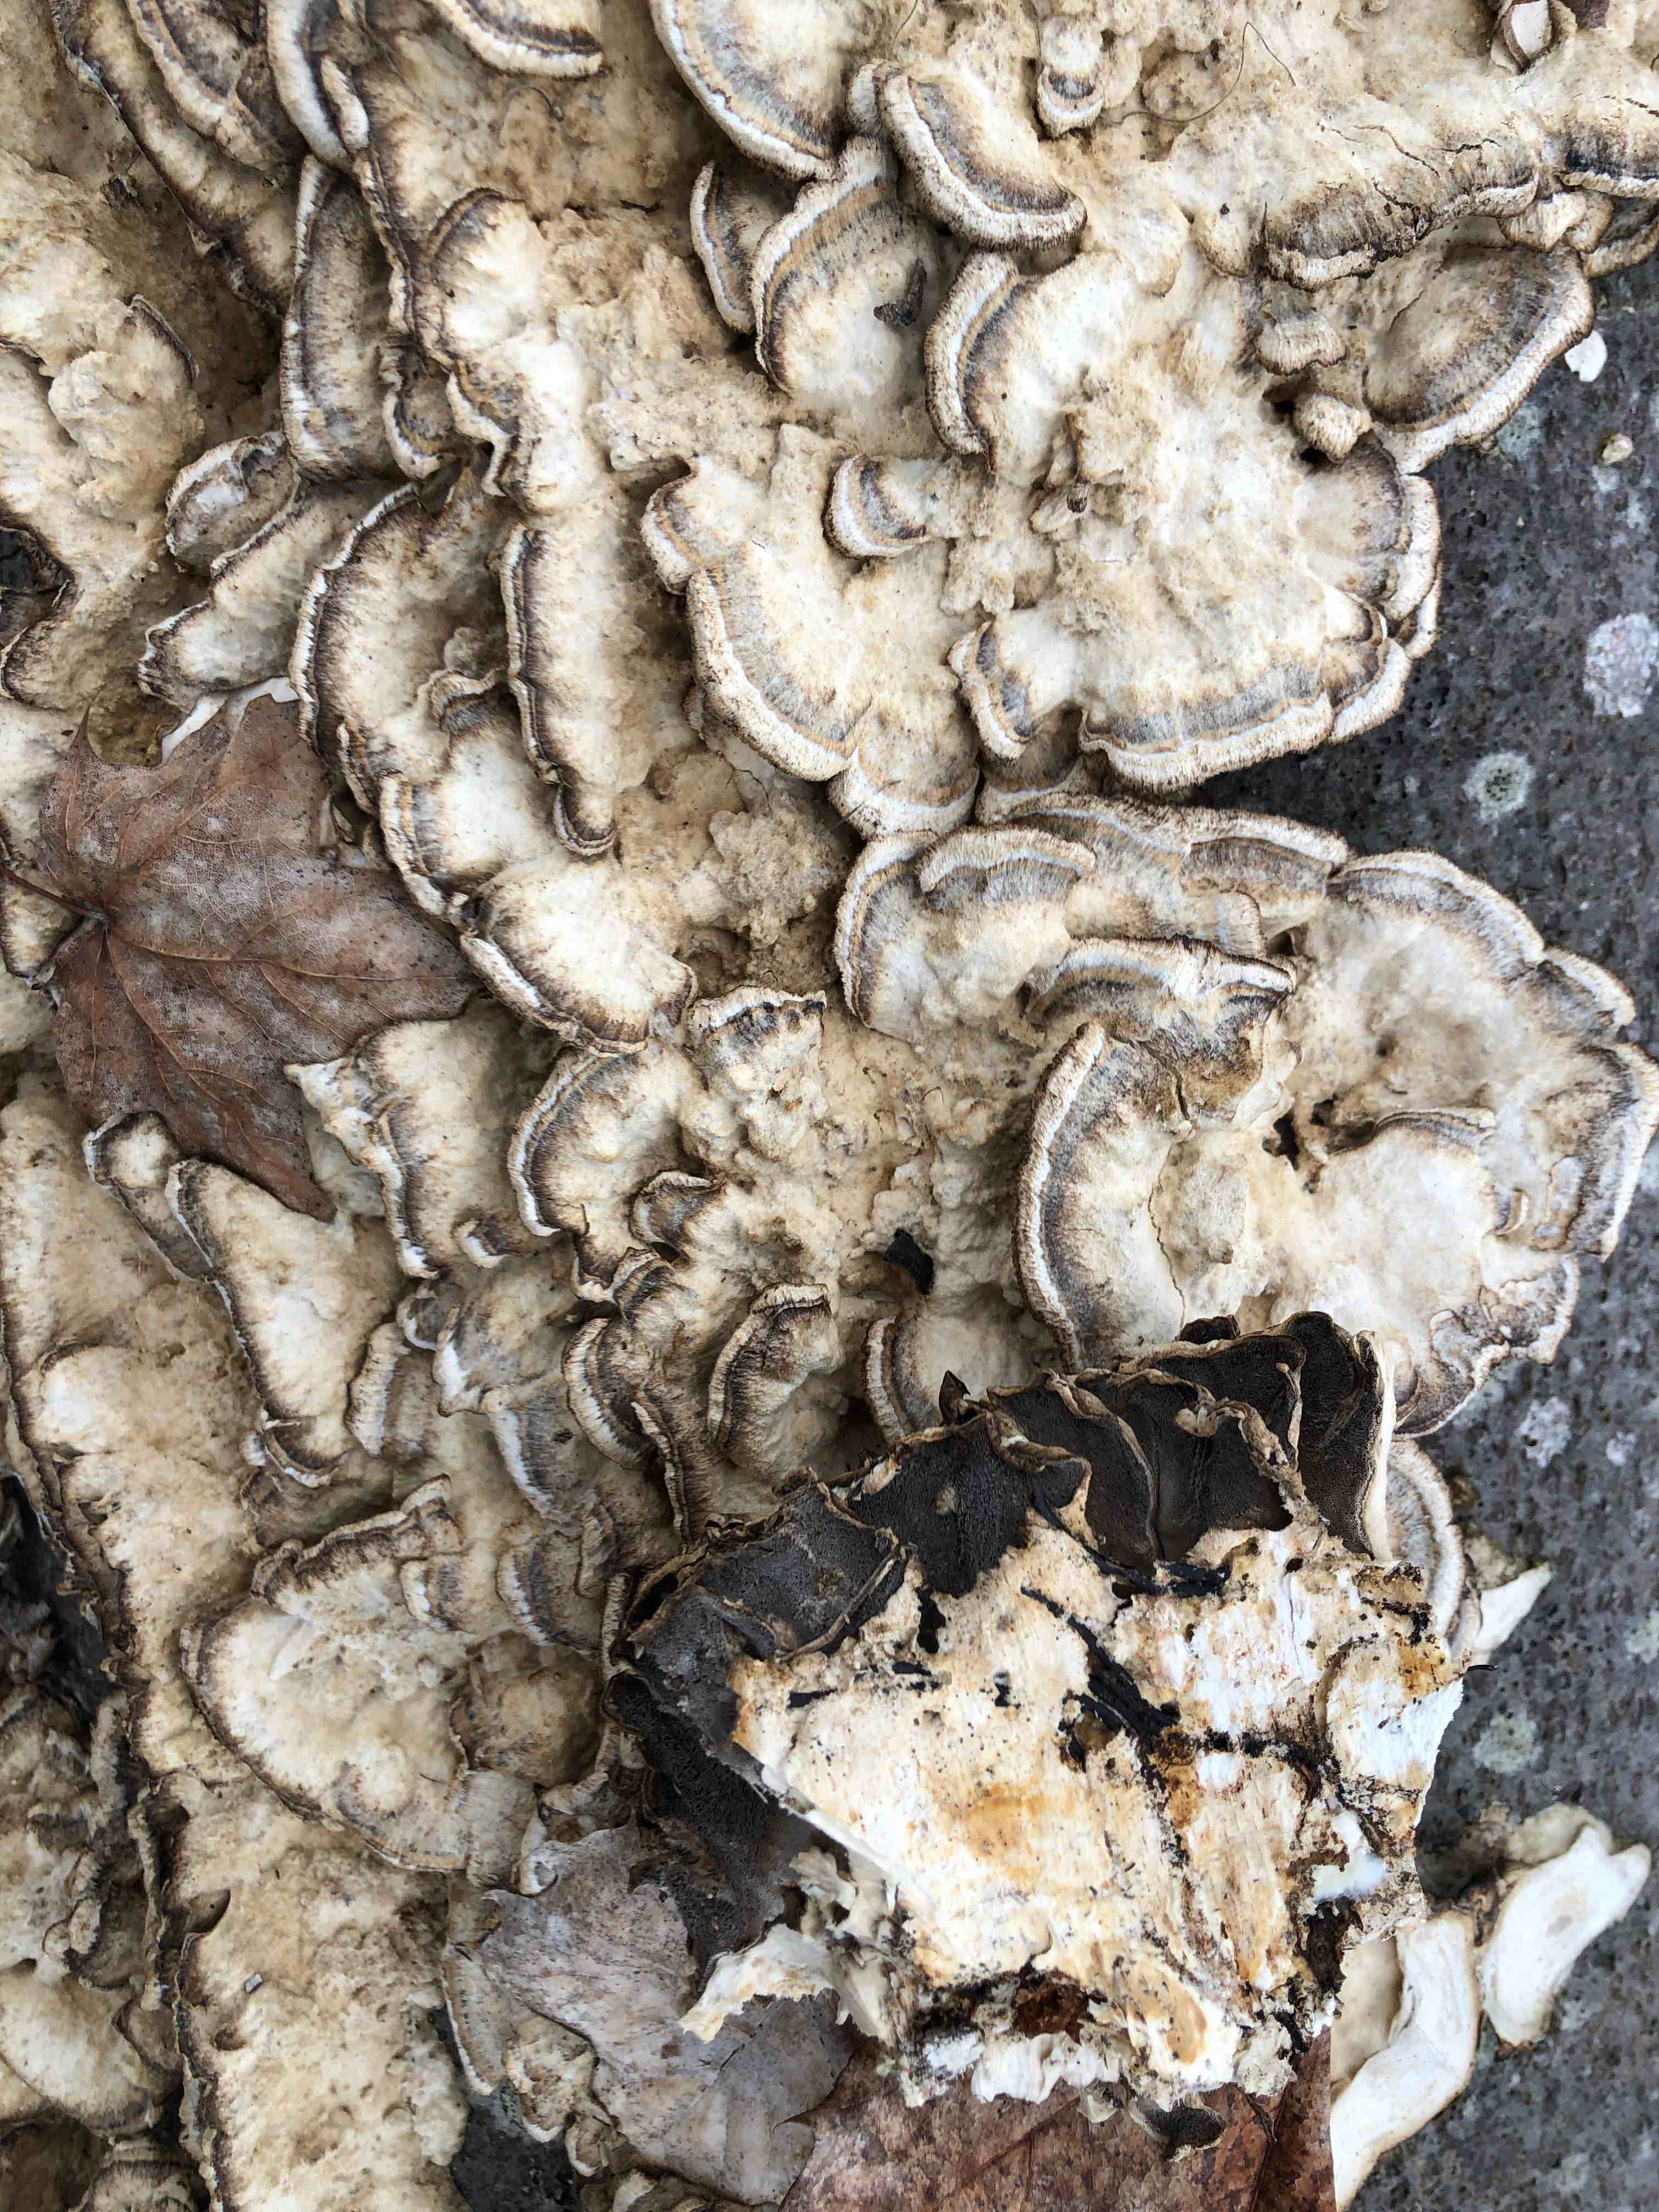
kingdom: Fungi
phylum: Basidiomycota
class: Agaricomycetes
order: Polyporales
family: Phanerochaetaceae
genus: Bjerkandera
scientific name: Bjerkandera adusta
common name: sveden sodporesvamp
